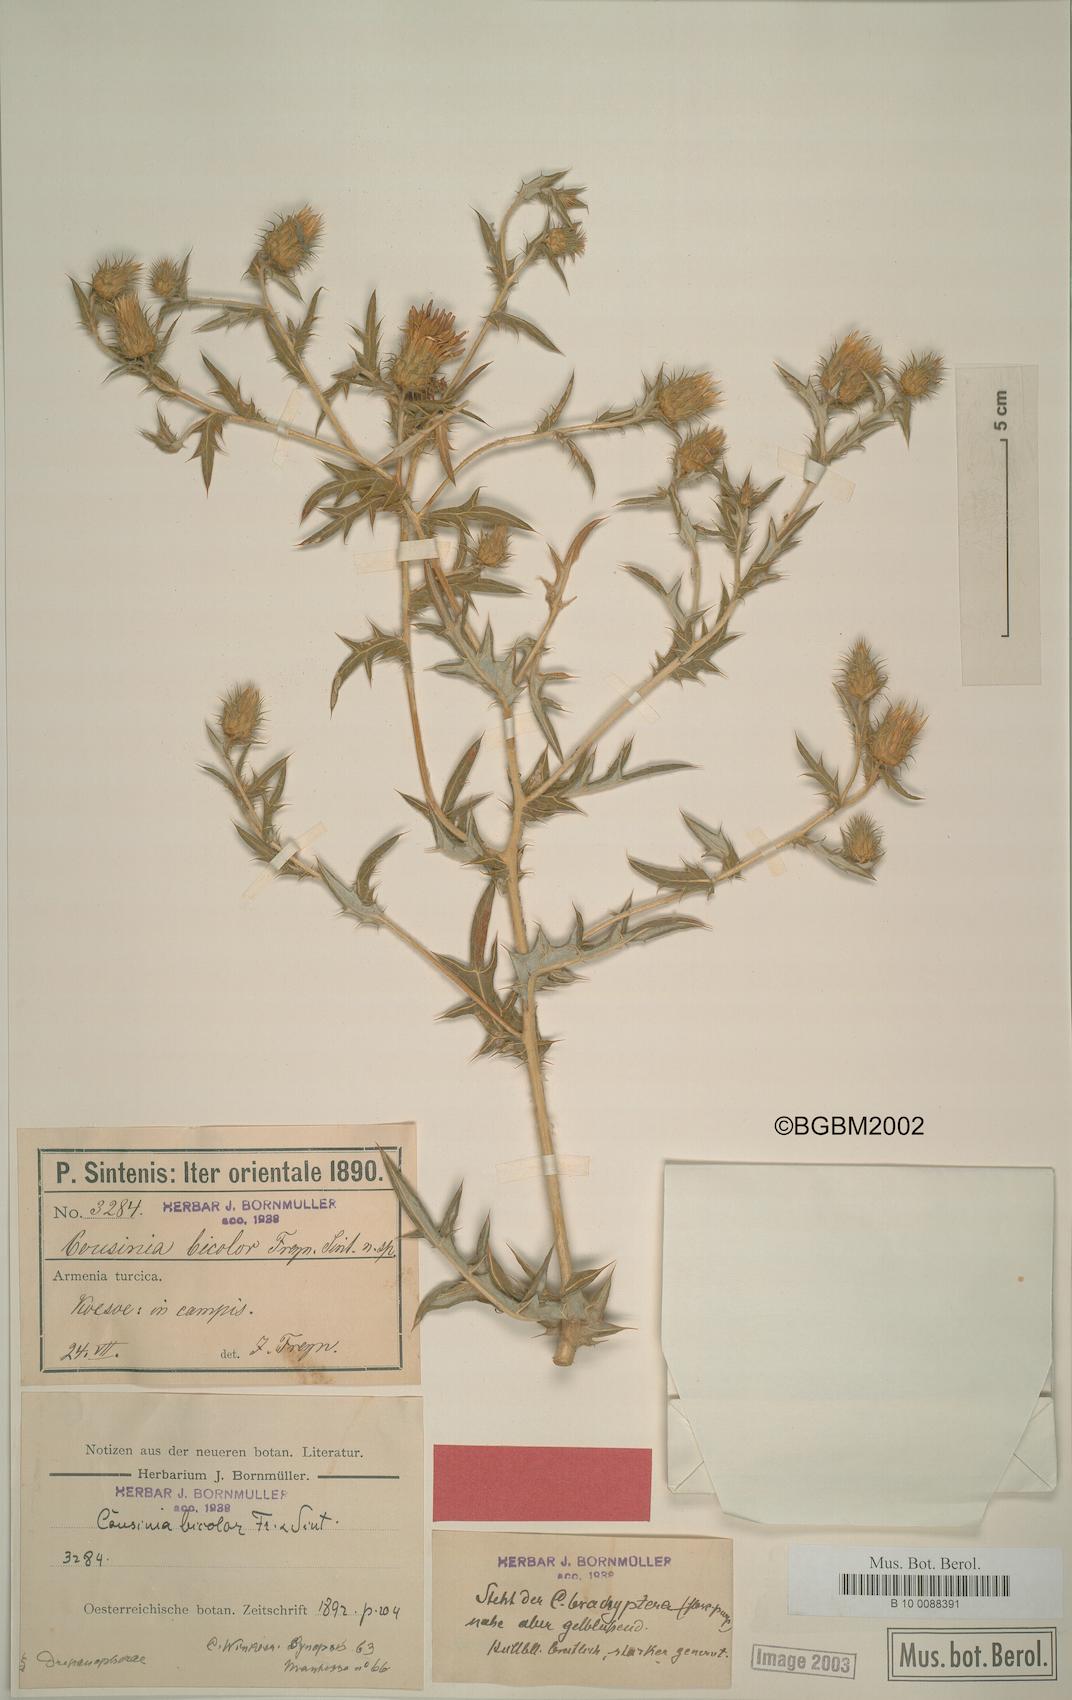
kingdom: Plantae
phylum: Tracheophyta
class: Magnoliopsida
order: Asterales
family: Asteraceae
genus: Cousinia
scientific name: Cousinia bicolor
